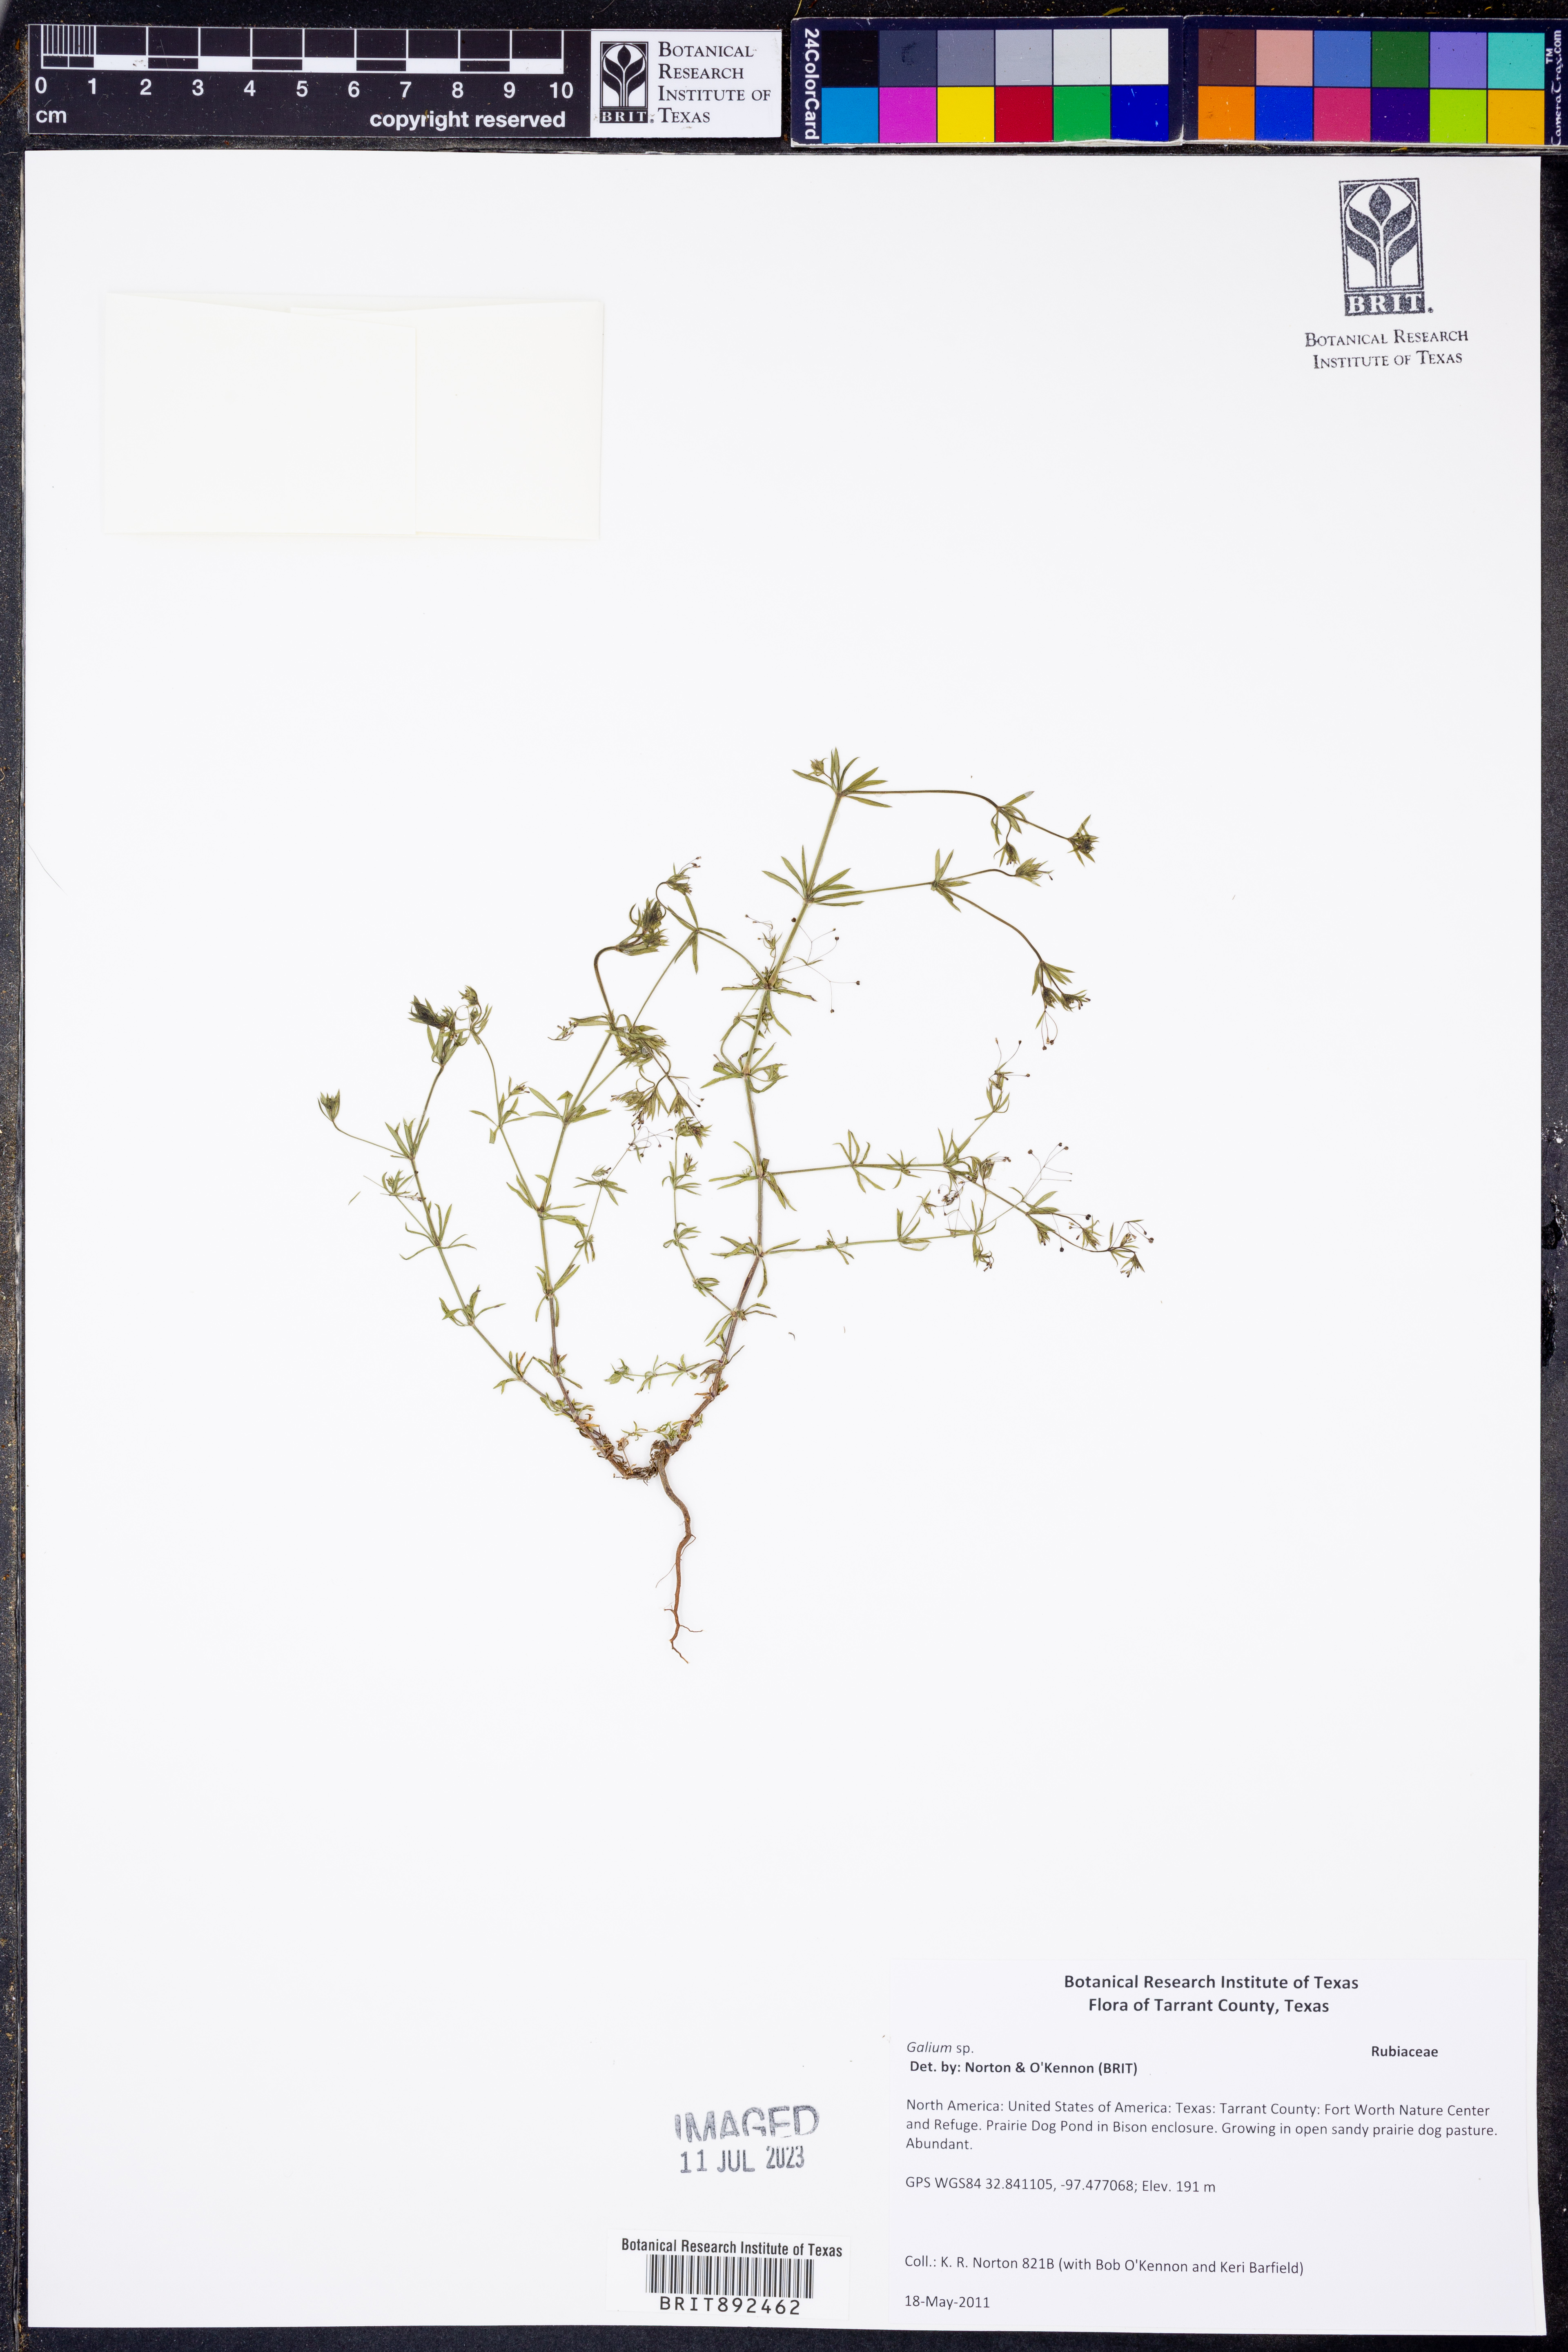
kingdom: Plantae
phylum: Tracheophyta
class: Magnoliopsida
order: Gentianales
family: Rubiaceae
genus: Galium
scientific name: Galium
